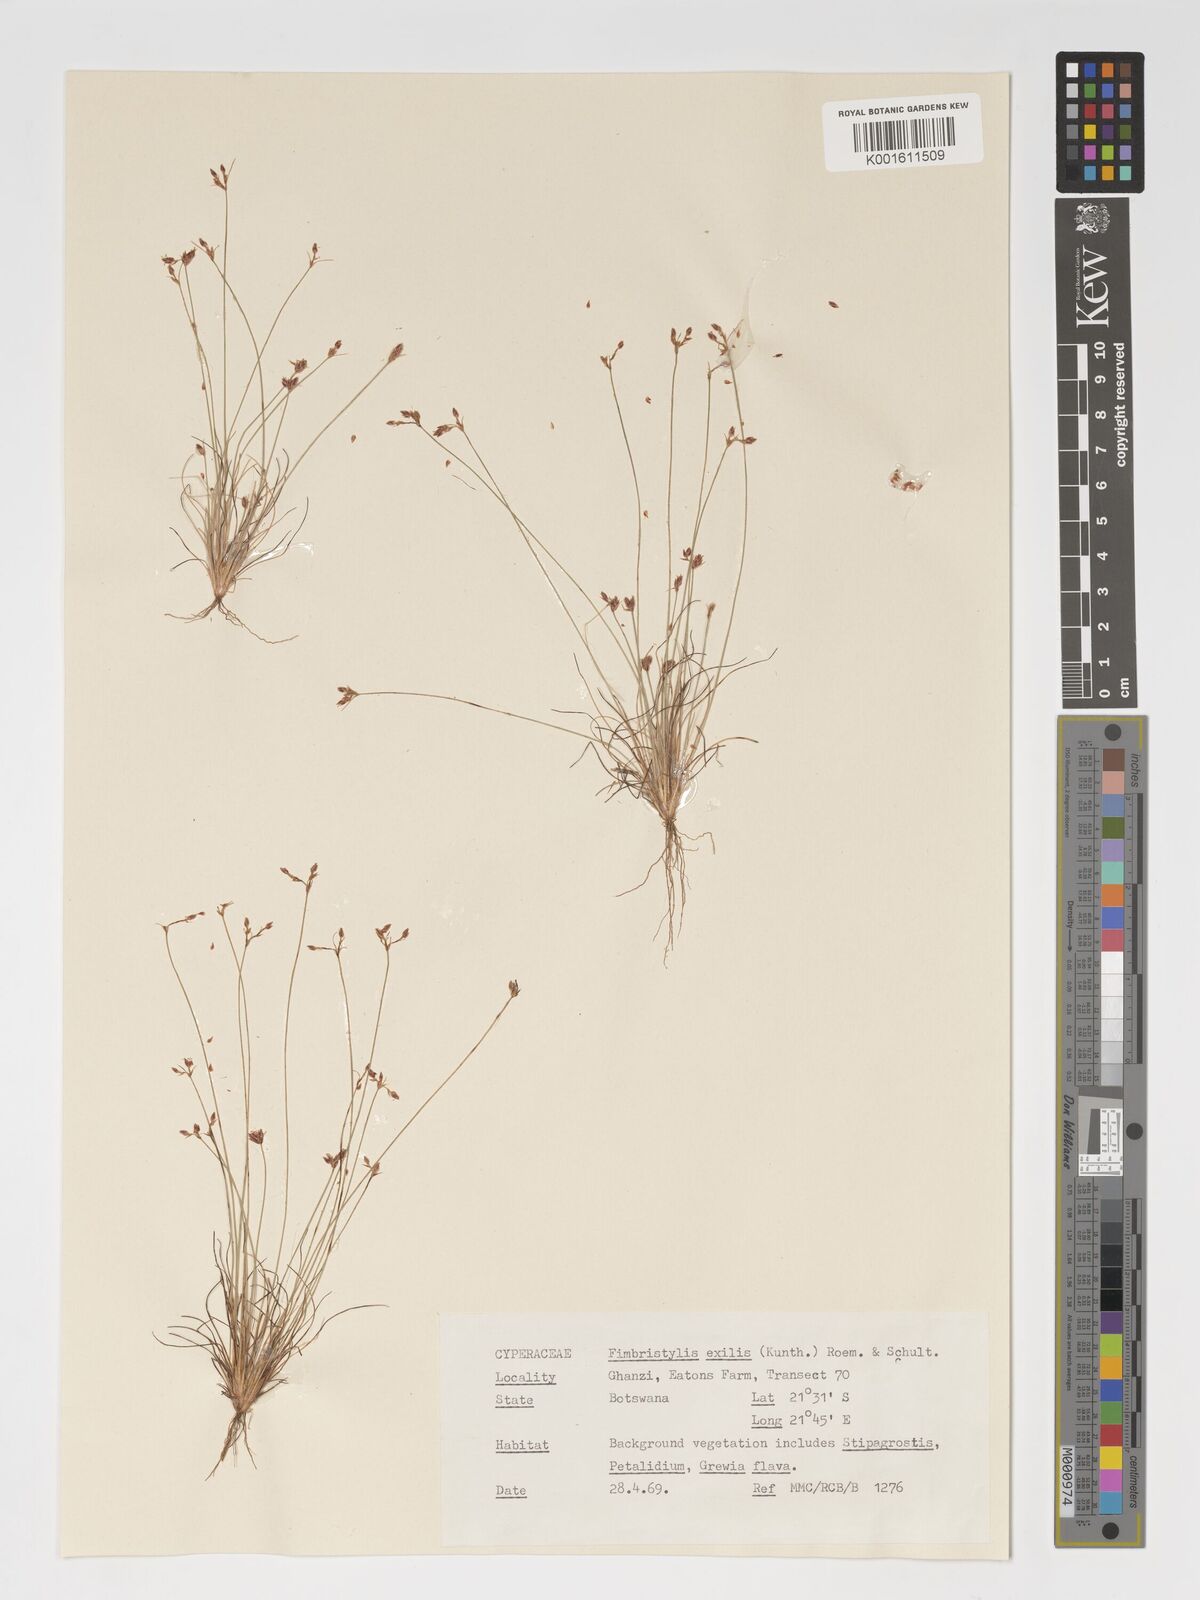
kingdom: Plantae
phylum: Tracheophyta
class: Liliopsida
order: Poales
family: Cyperaceae
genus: Bulbostylis
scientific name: Bulbostylis hispidula
